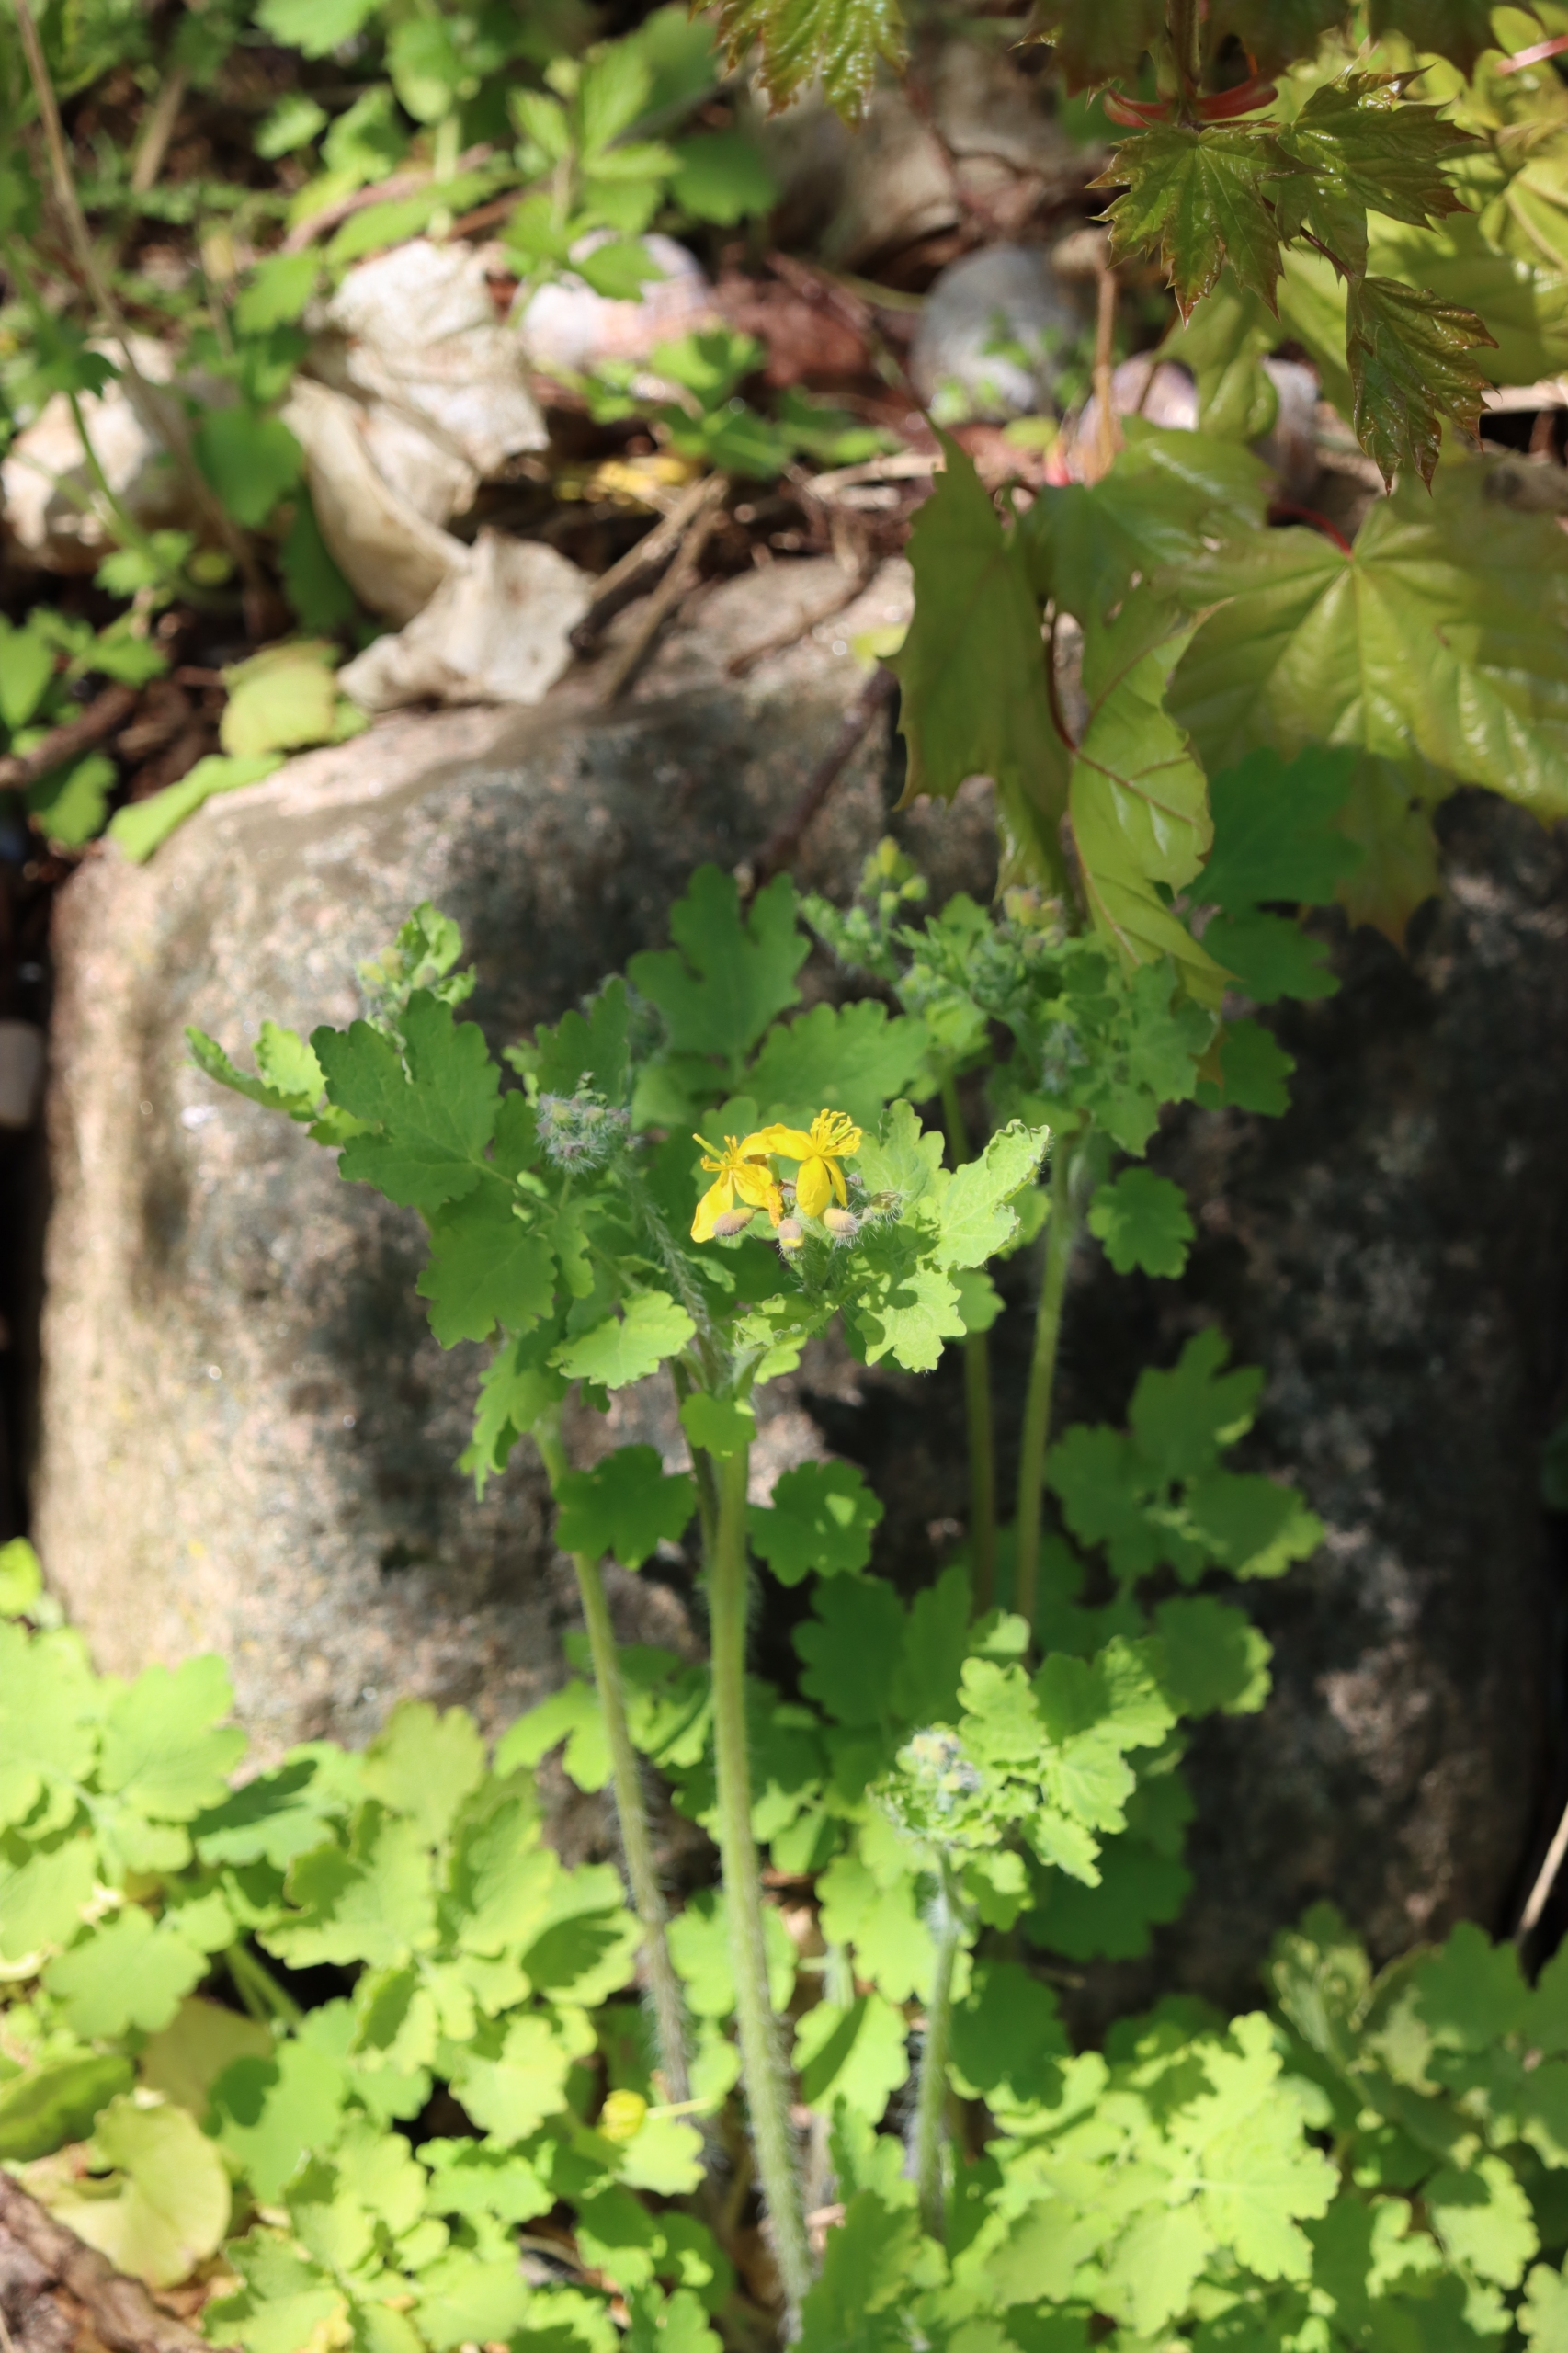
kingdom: Plantae
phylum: Tracheophyta
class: Magnoliopsida
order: Ranunculales
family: Papaveraceae
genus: Chelidonium
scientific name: Chelidonium majus
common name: Svaleurt
